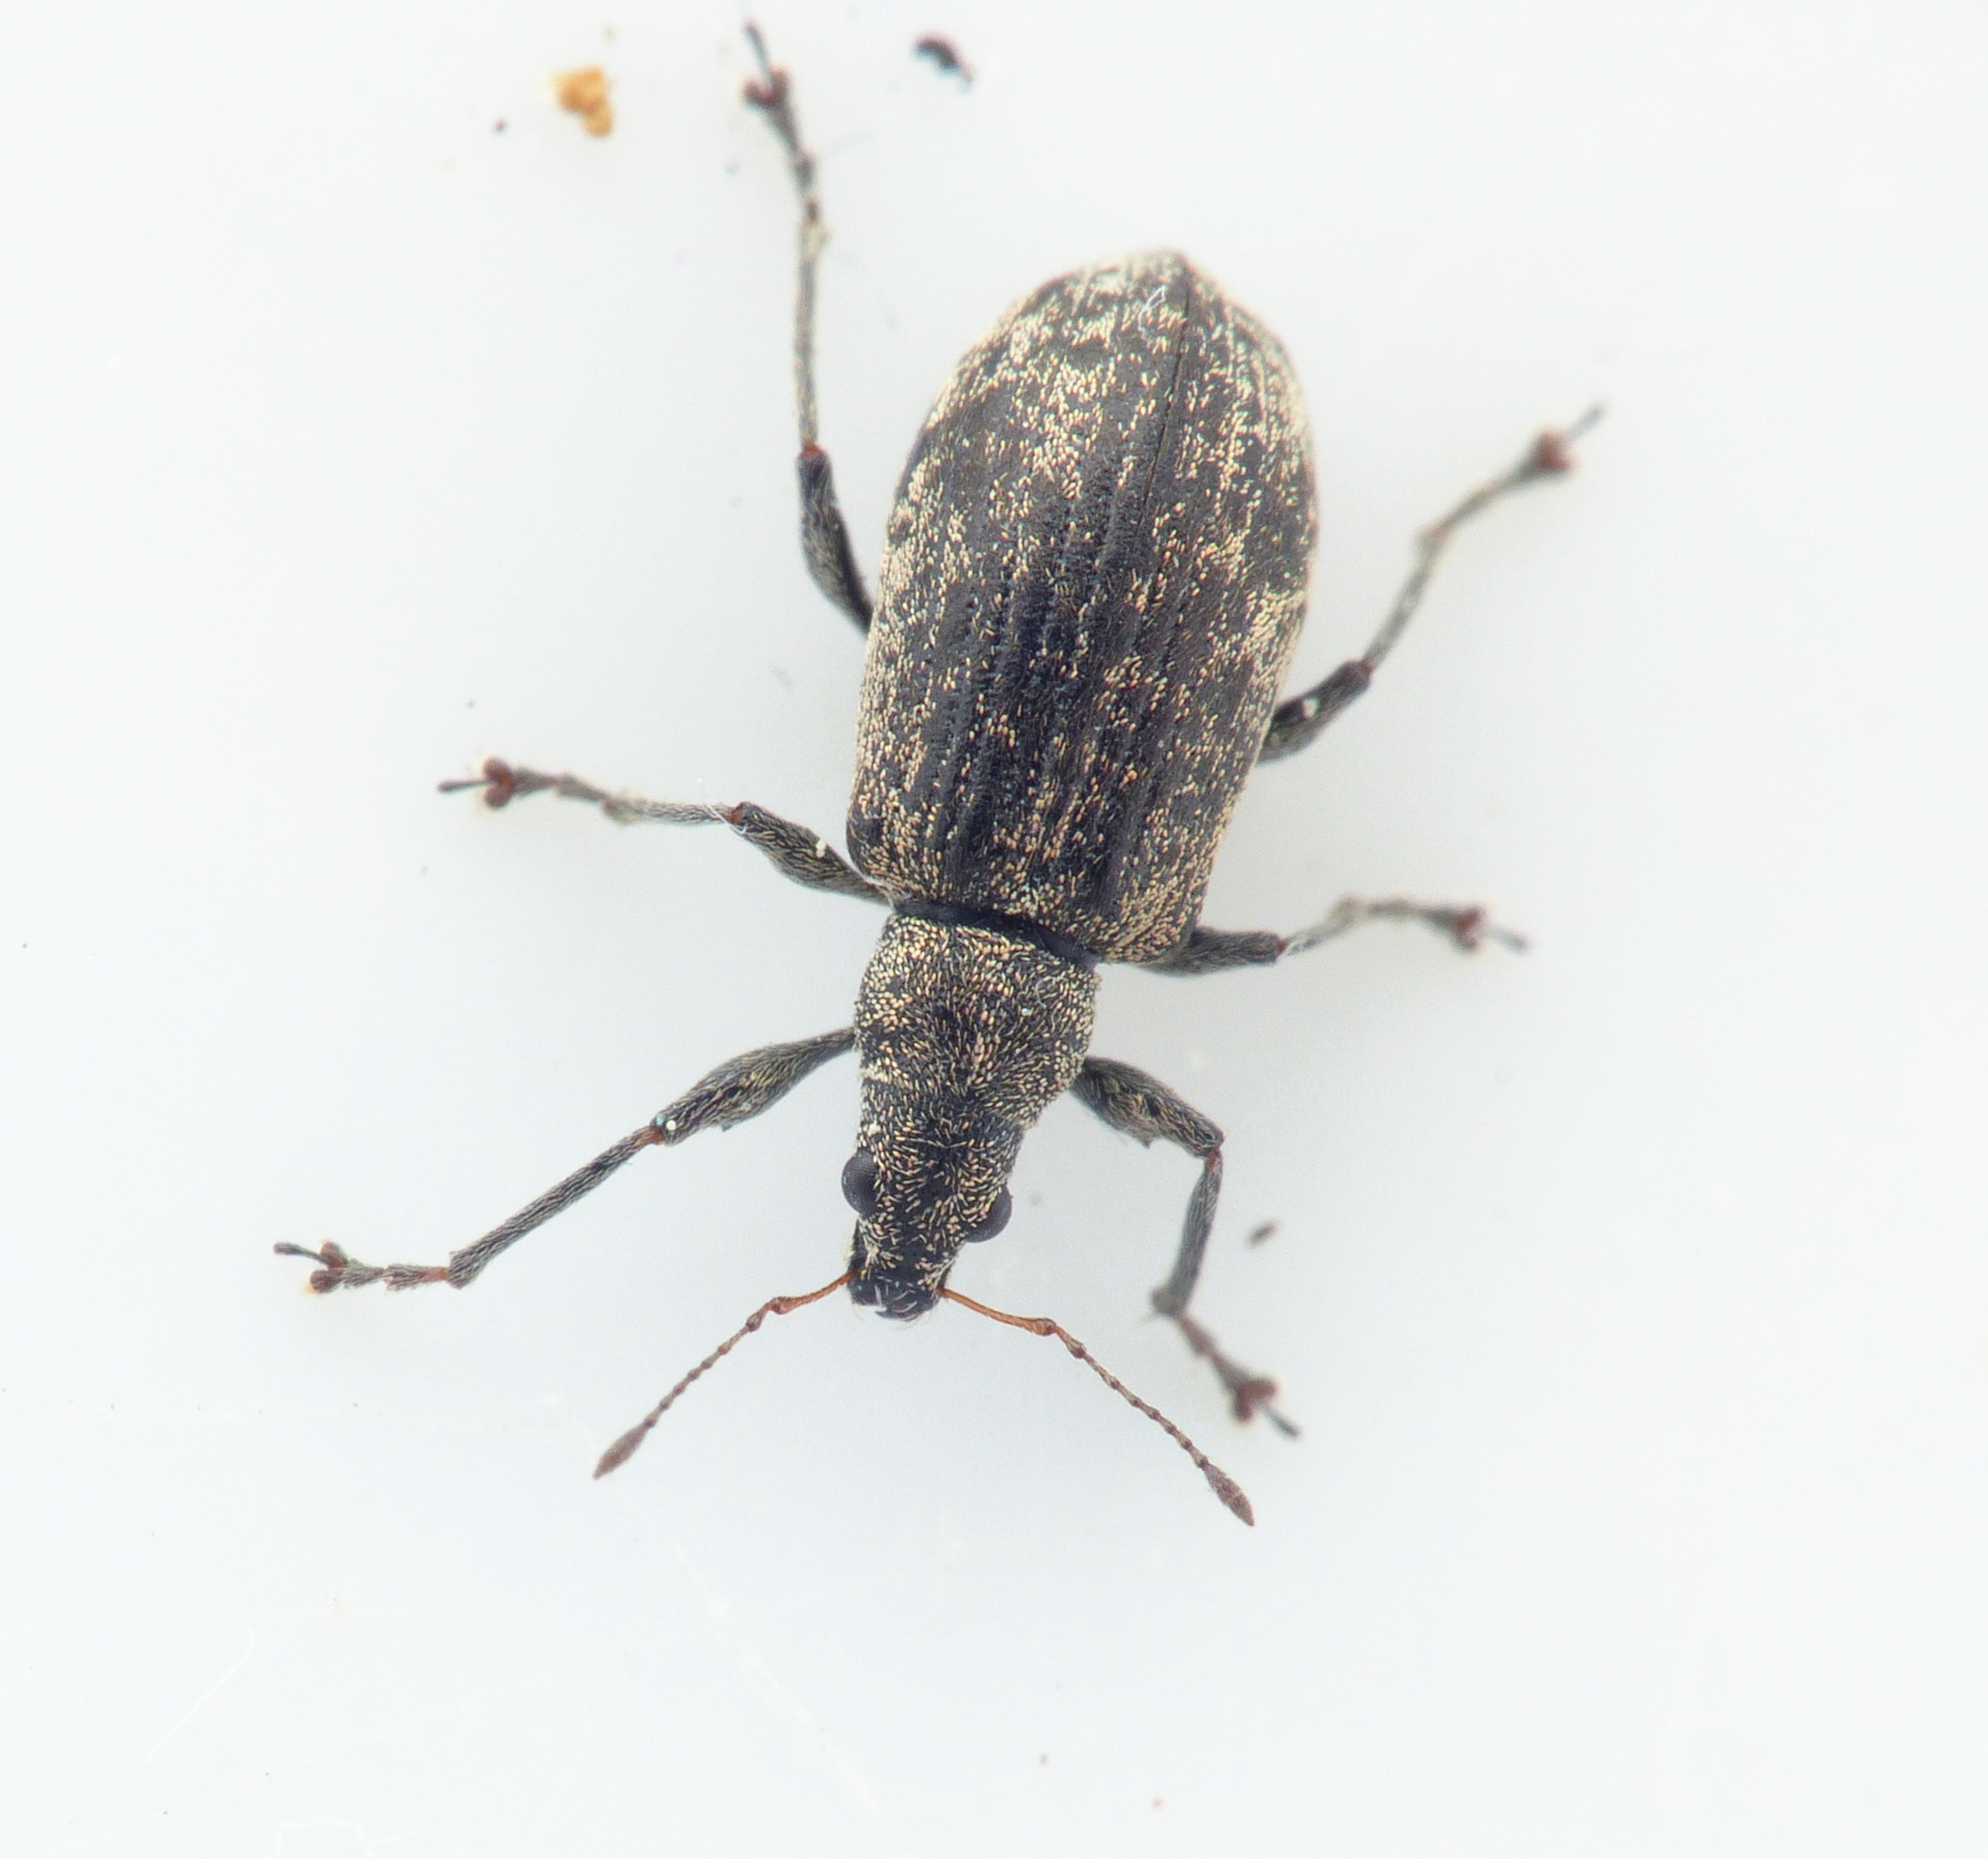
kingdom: Animalia
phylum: Arthropoda
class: Insecta
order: Coleoptera
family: Curculionidae
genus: Polydrusus
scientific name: Polydrusus cervinus
